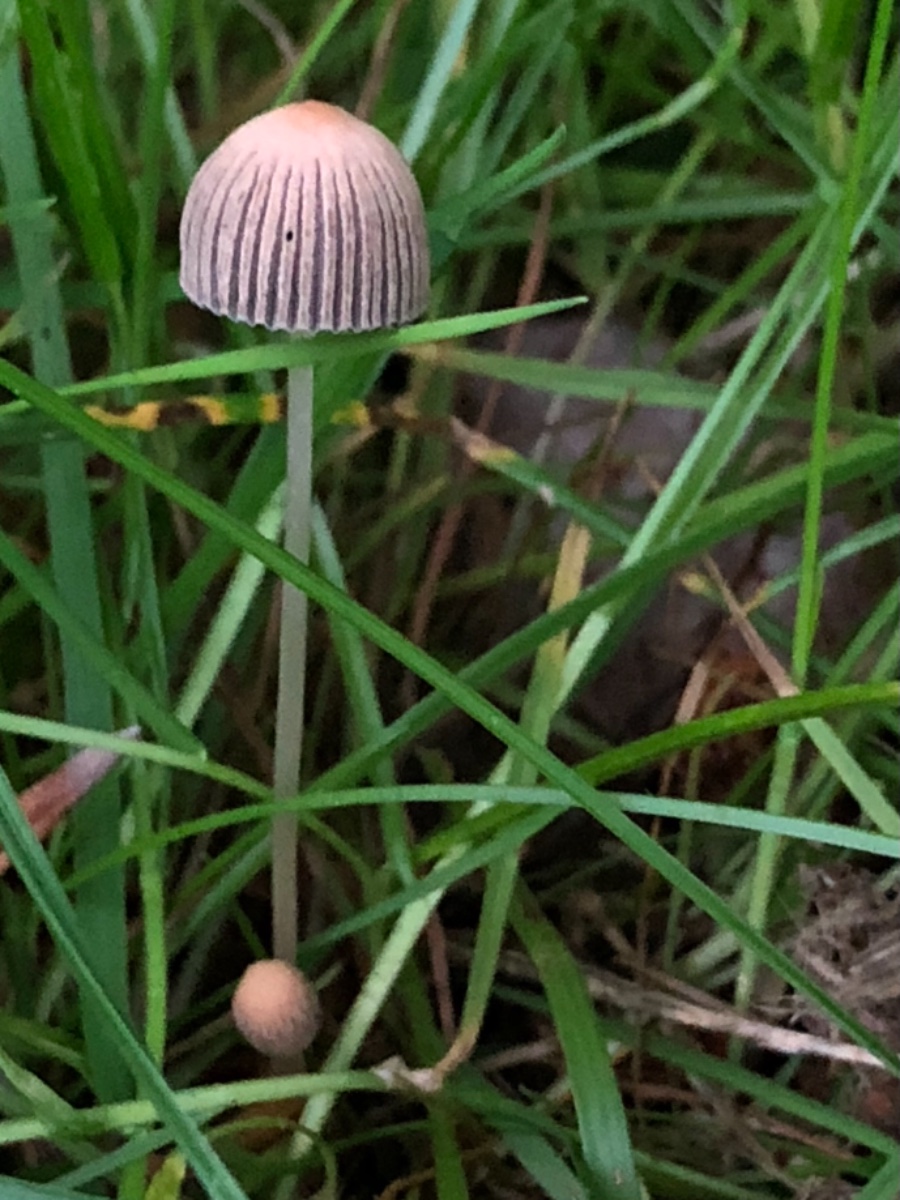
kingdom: Fungi
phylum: Basidiomycota
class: Agaricomycetes
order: Agaricales
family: Psathyrellaceae
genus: Parasola
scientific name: Parasola schroeteri
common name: bredsporet hjulhat
